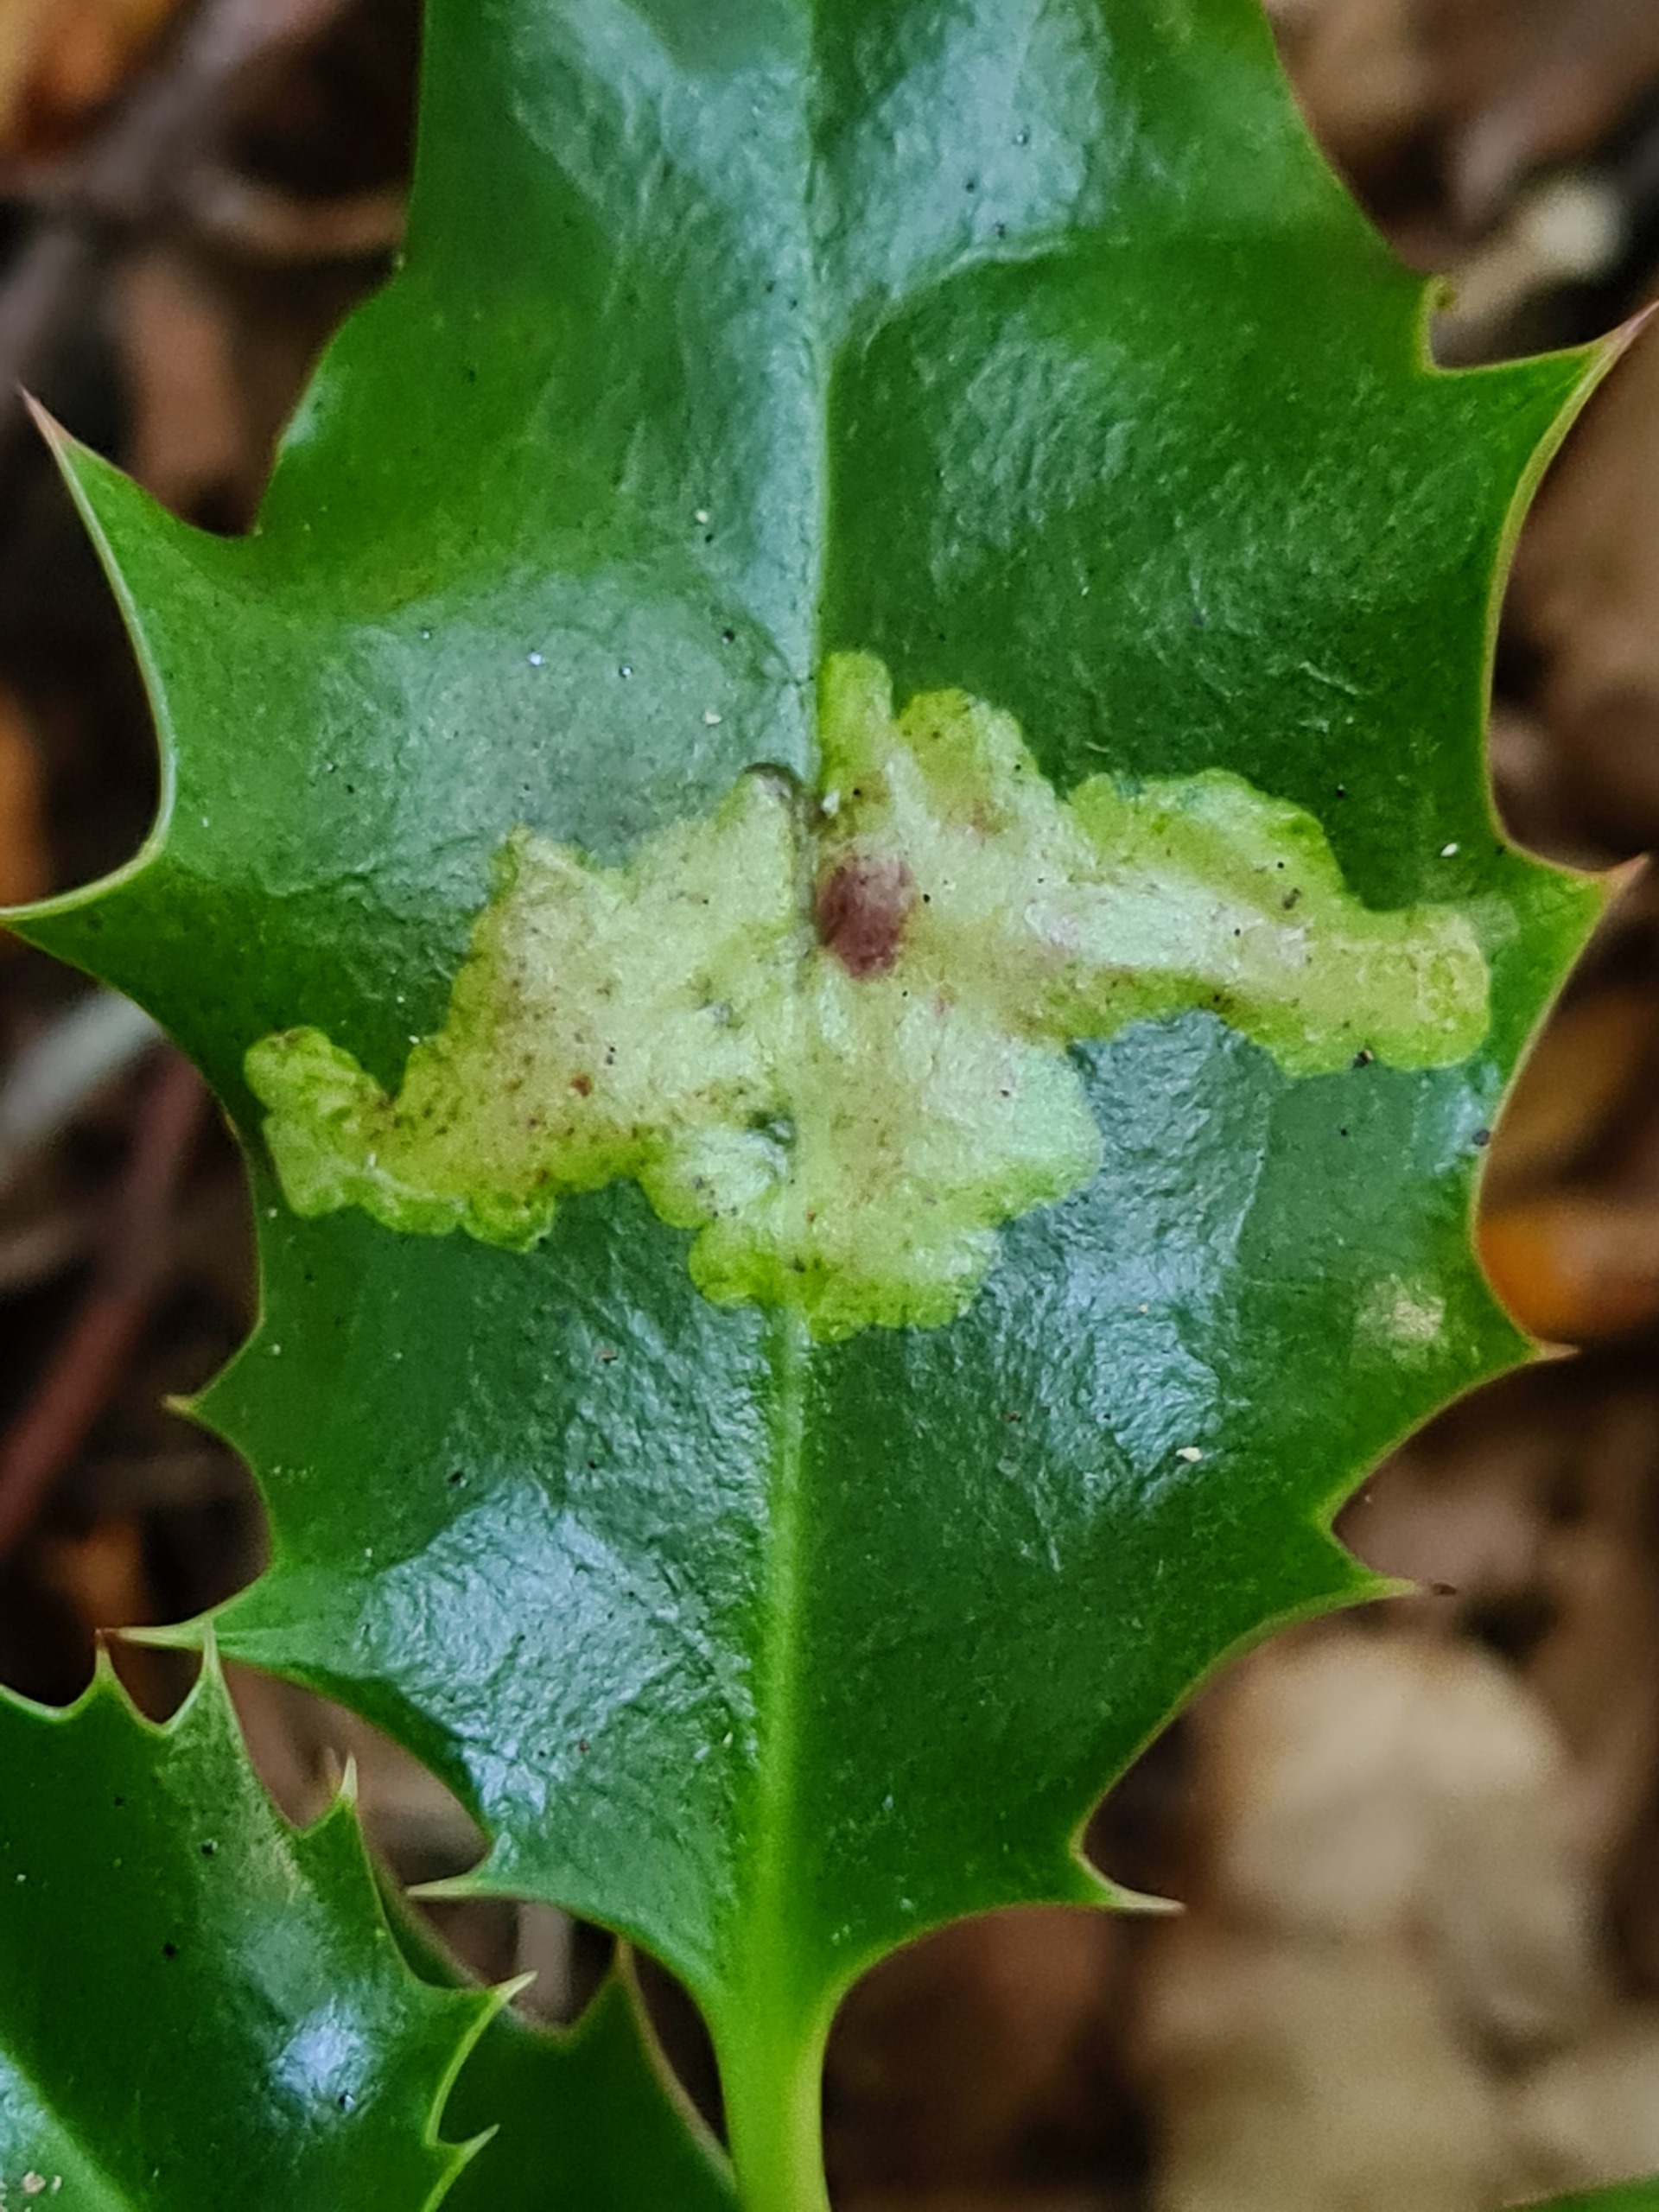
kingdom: Animalia
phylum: Arthropoda
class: Insecta
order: Diptera
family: Agromyzidae
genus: Phytomyza
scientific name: Phytomyza ilicis
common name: Kristtornminérflue
